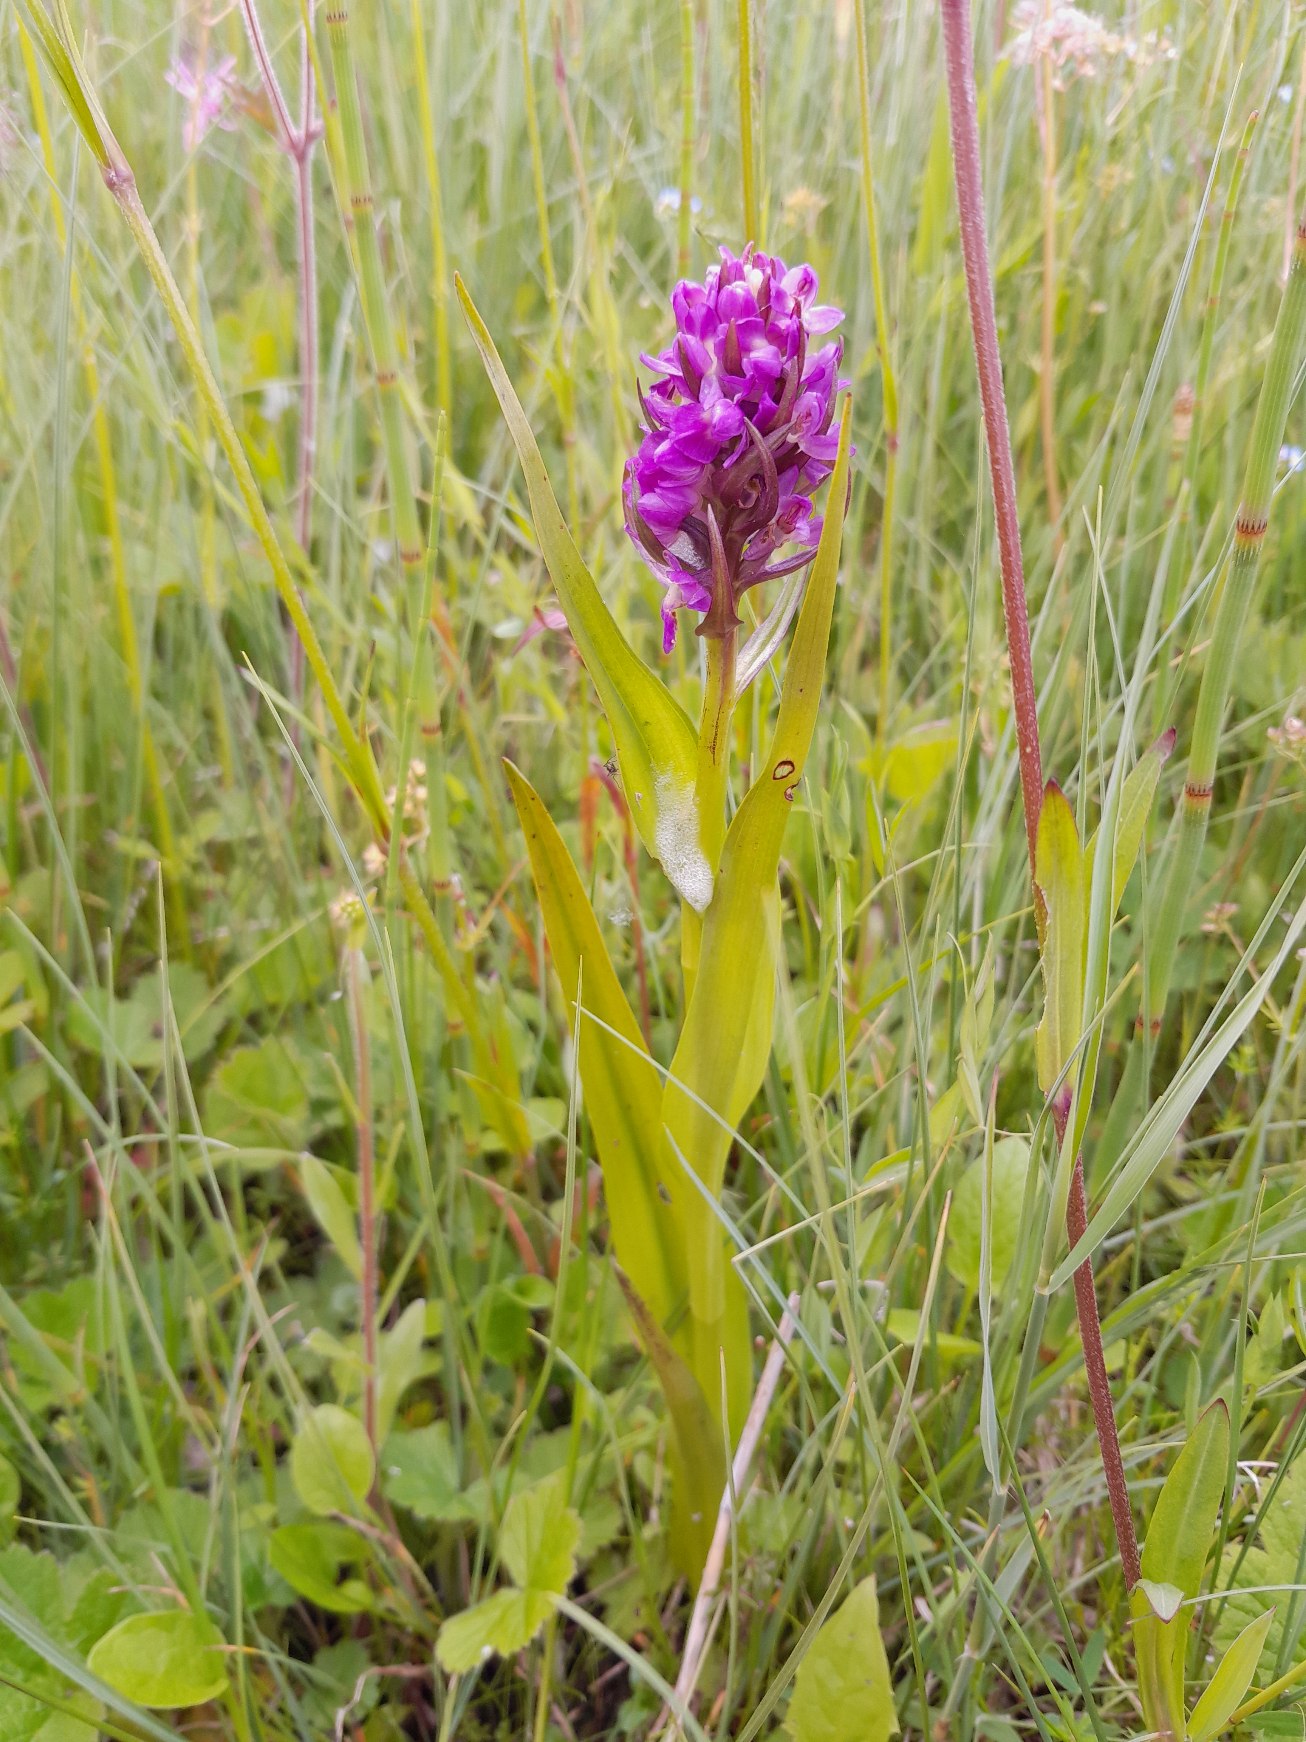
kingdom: Plantae
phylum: Tracheophyta
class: Liliopsida
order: Asparagales
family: Orchidaceae
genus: Dactylorhiza
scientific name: Dactylorhiza incarnata
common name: Kødfarvet gøgeurt
